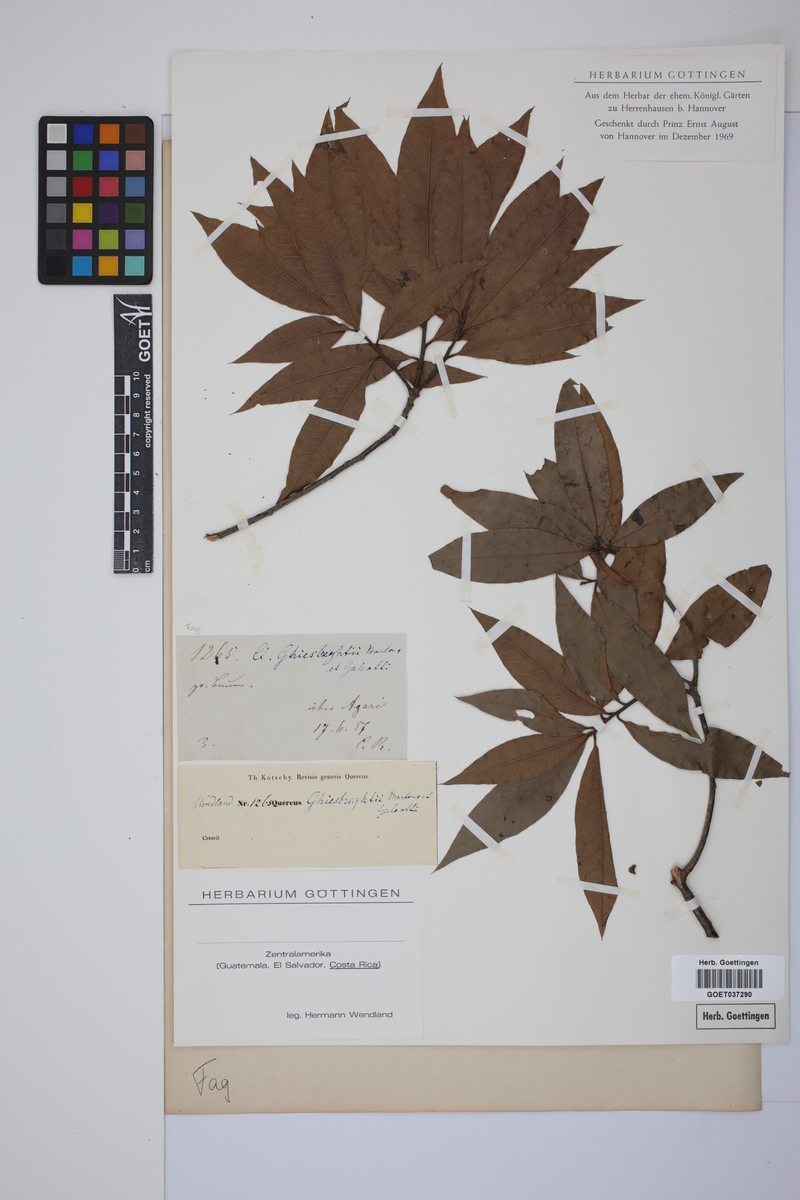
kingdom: Plantae
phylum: Tracheophyta
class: Magnoliopsida
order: Fagales
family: Fagaceae
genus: Quercus
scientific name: Quercus ghiesbreghtii
